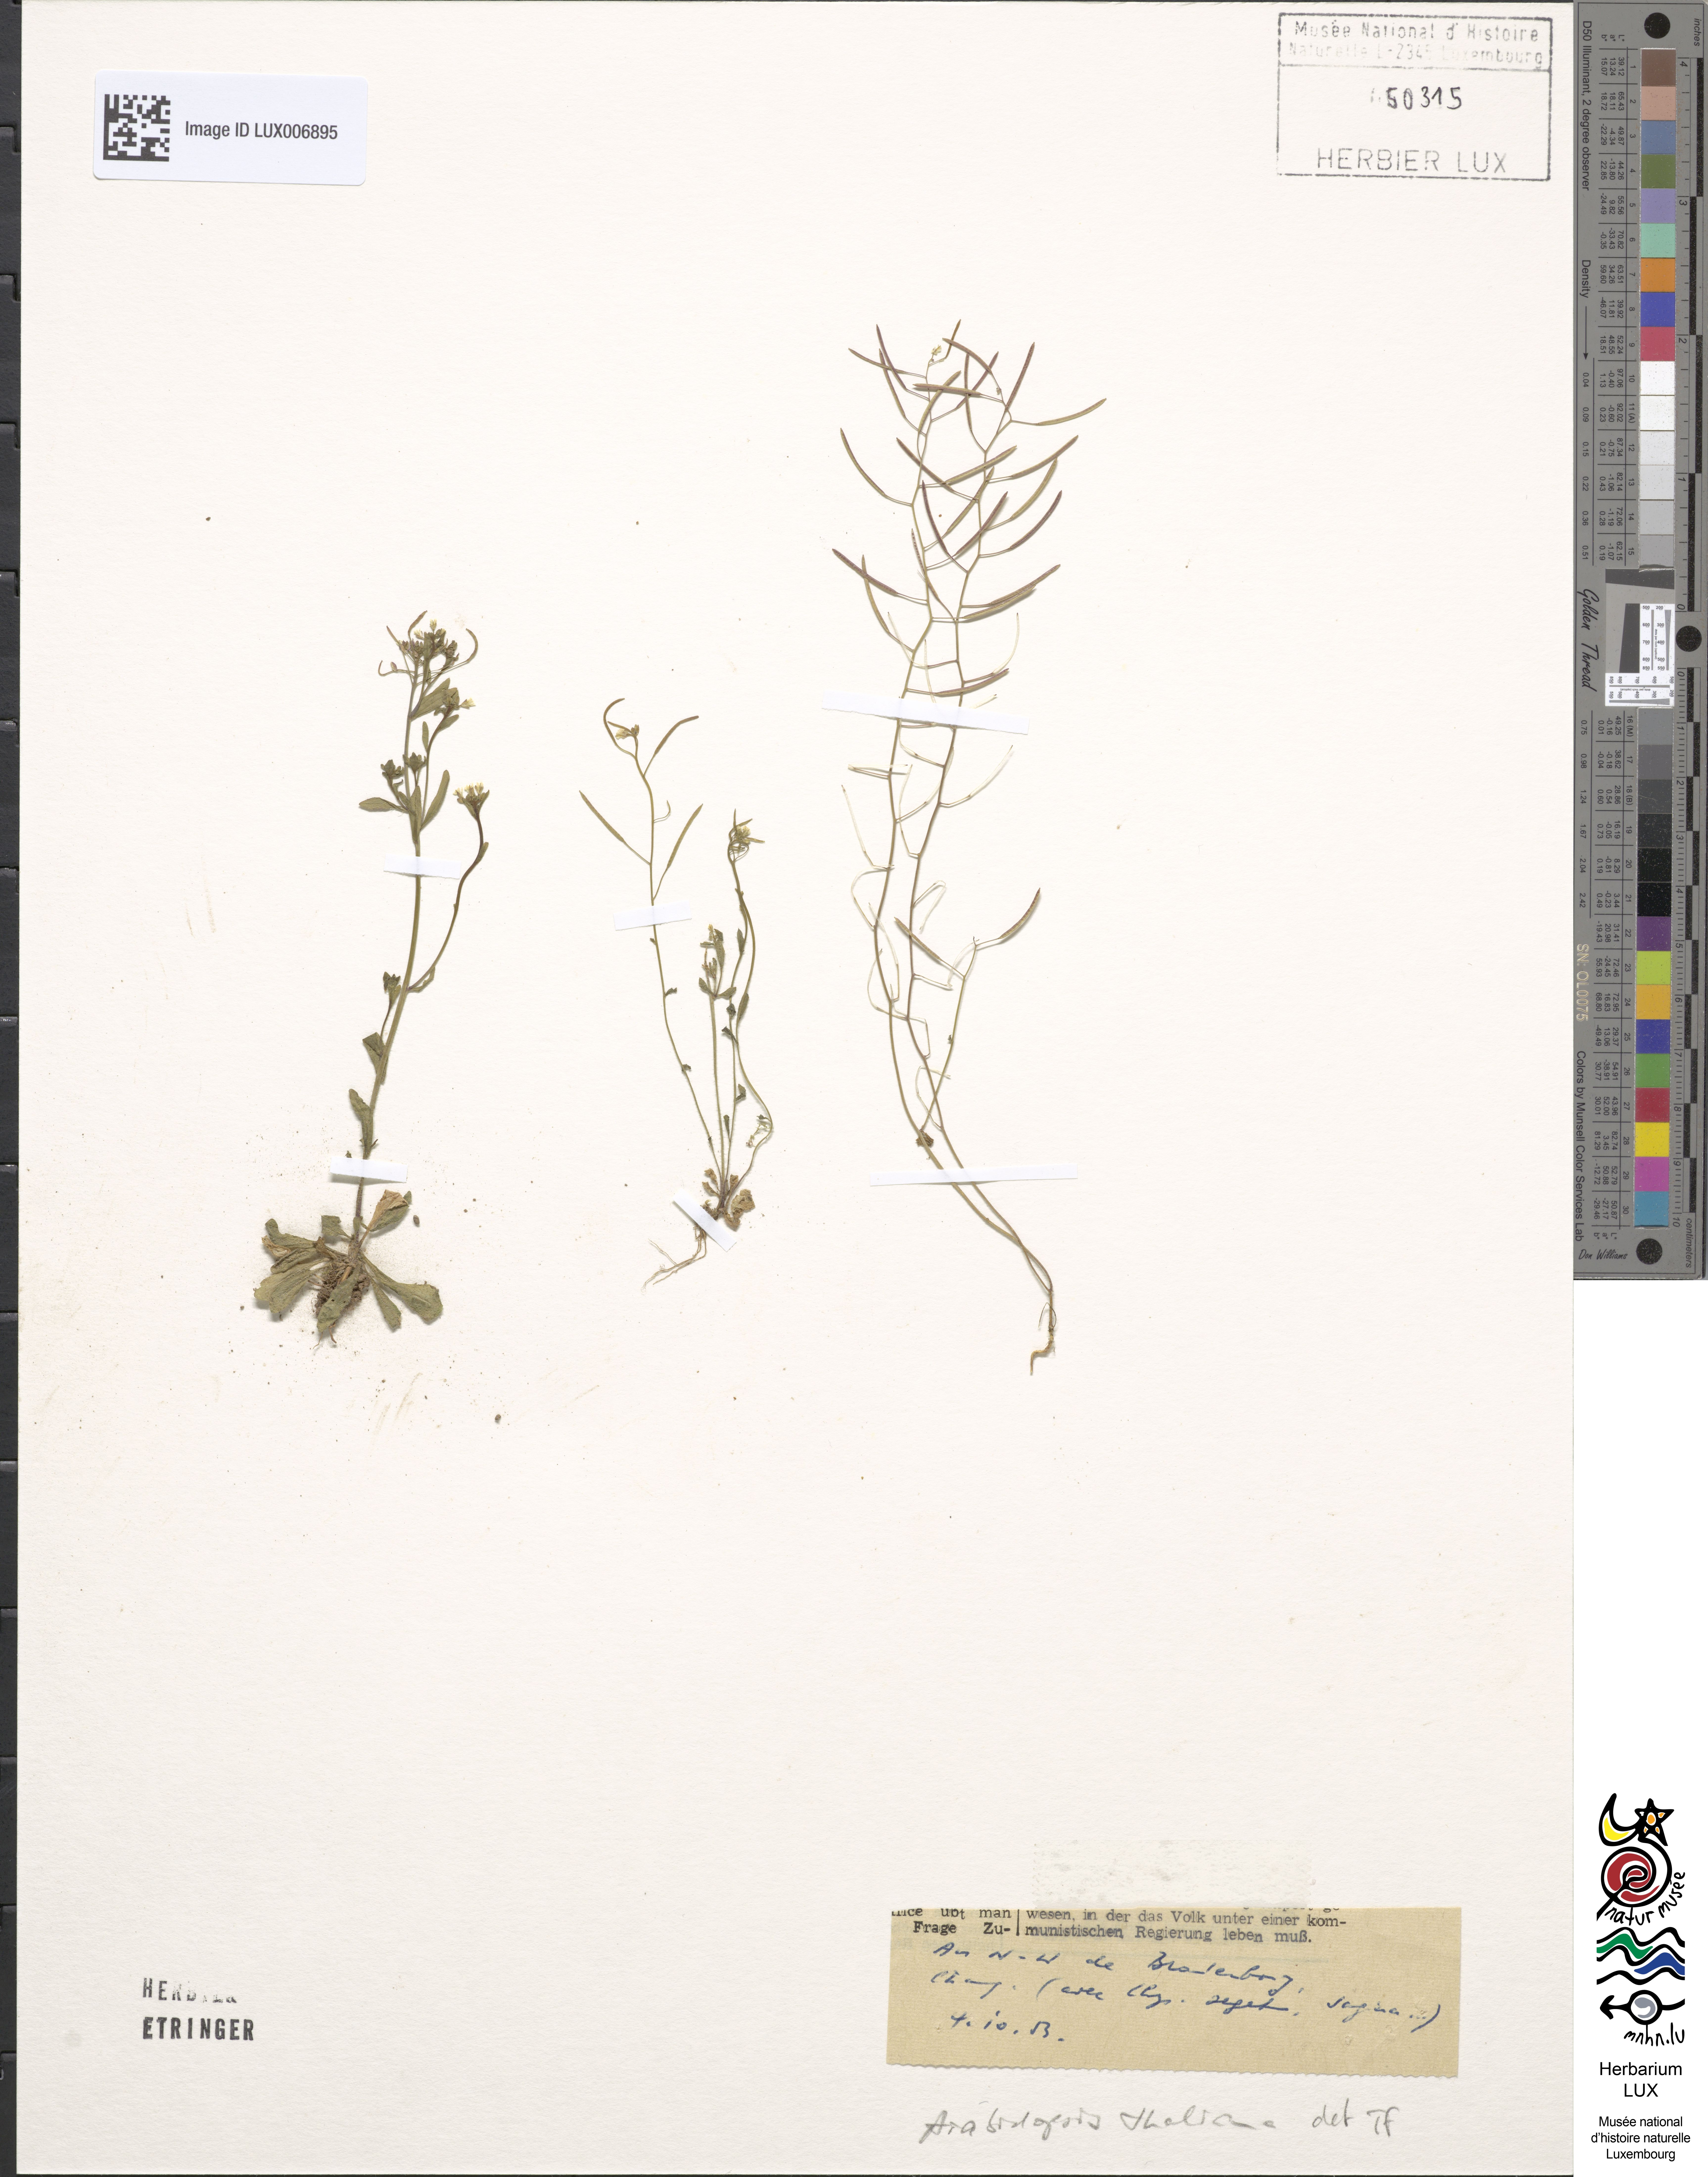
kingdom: Plantae
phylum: Tracheophyta
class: Magnoliopsida
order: Brassicales
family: Brassicaceae
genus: Arabidopsis
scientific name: Arabidopsis thaliana
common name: Thale cress
